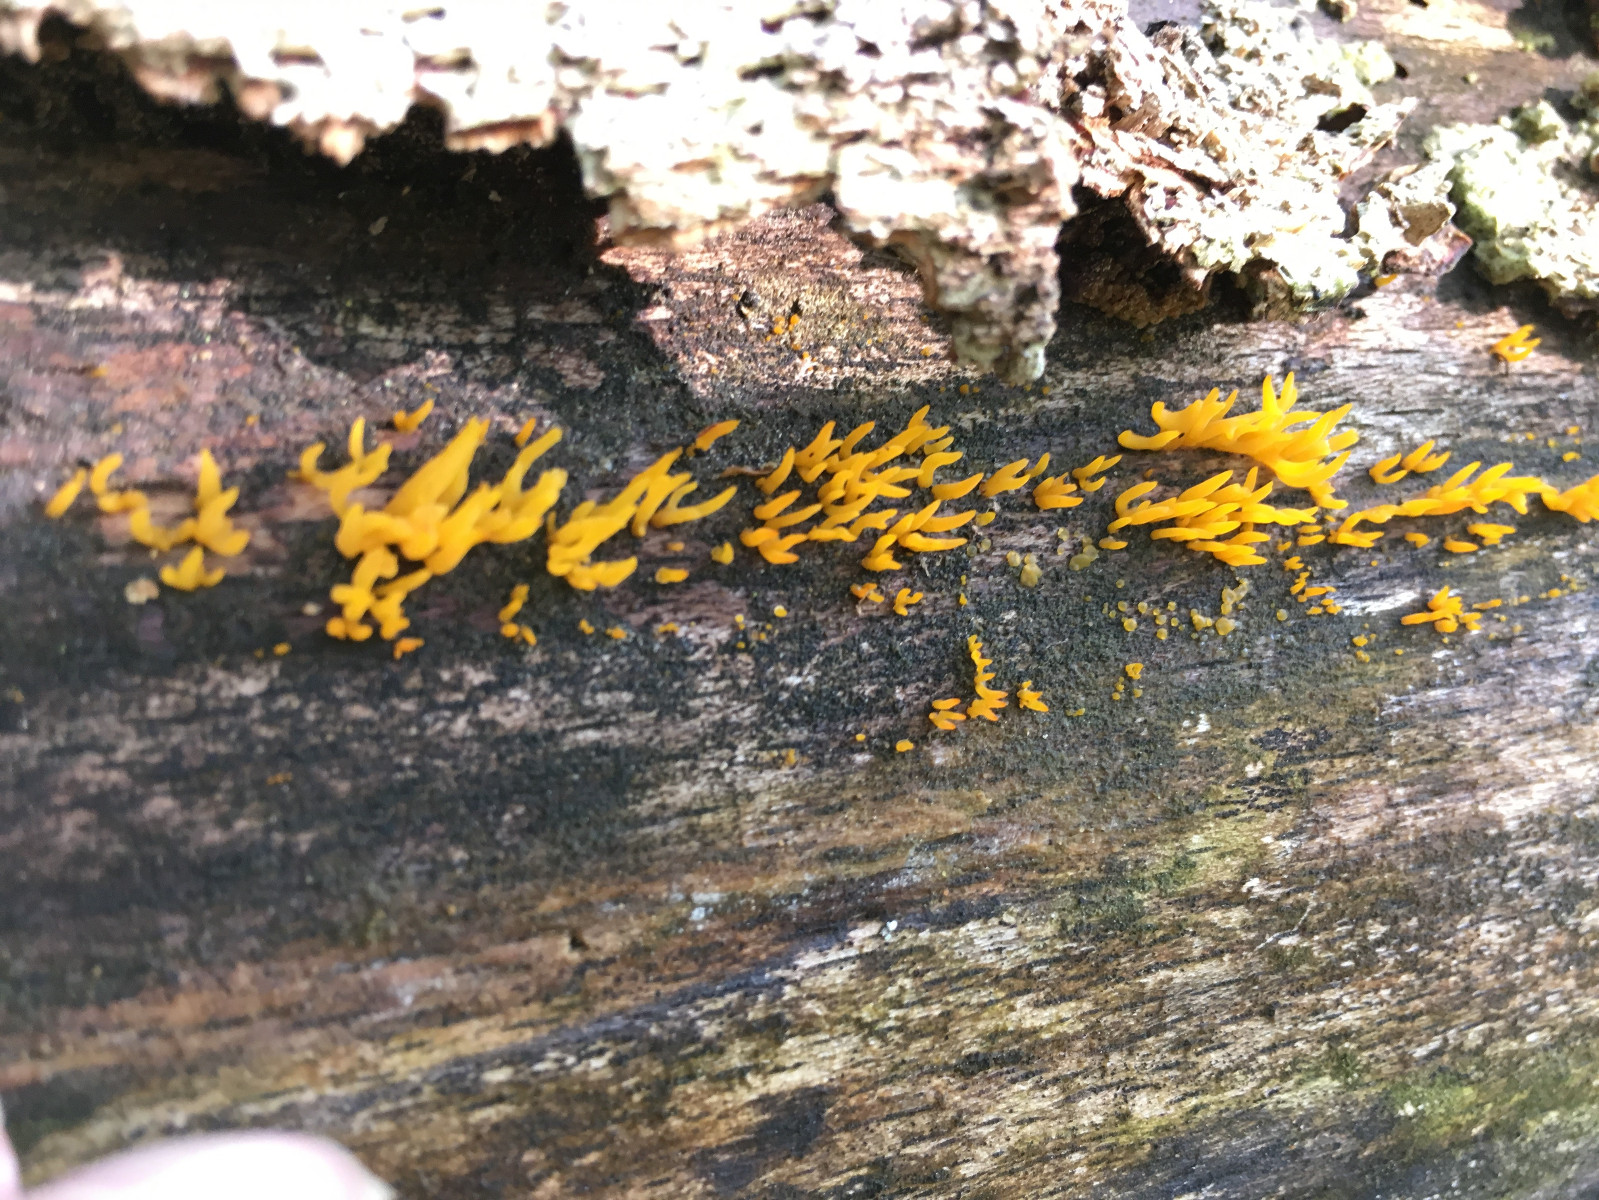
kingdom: Fungi
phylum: Basidiomycota
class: Dacrymycetes
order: Dacrymycetales
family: Dacrymycetaceae
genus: Calocera
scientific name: Calocera cornea
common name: liden guldgaffel
